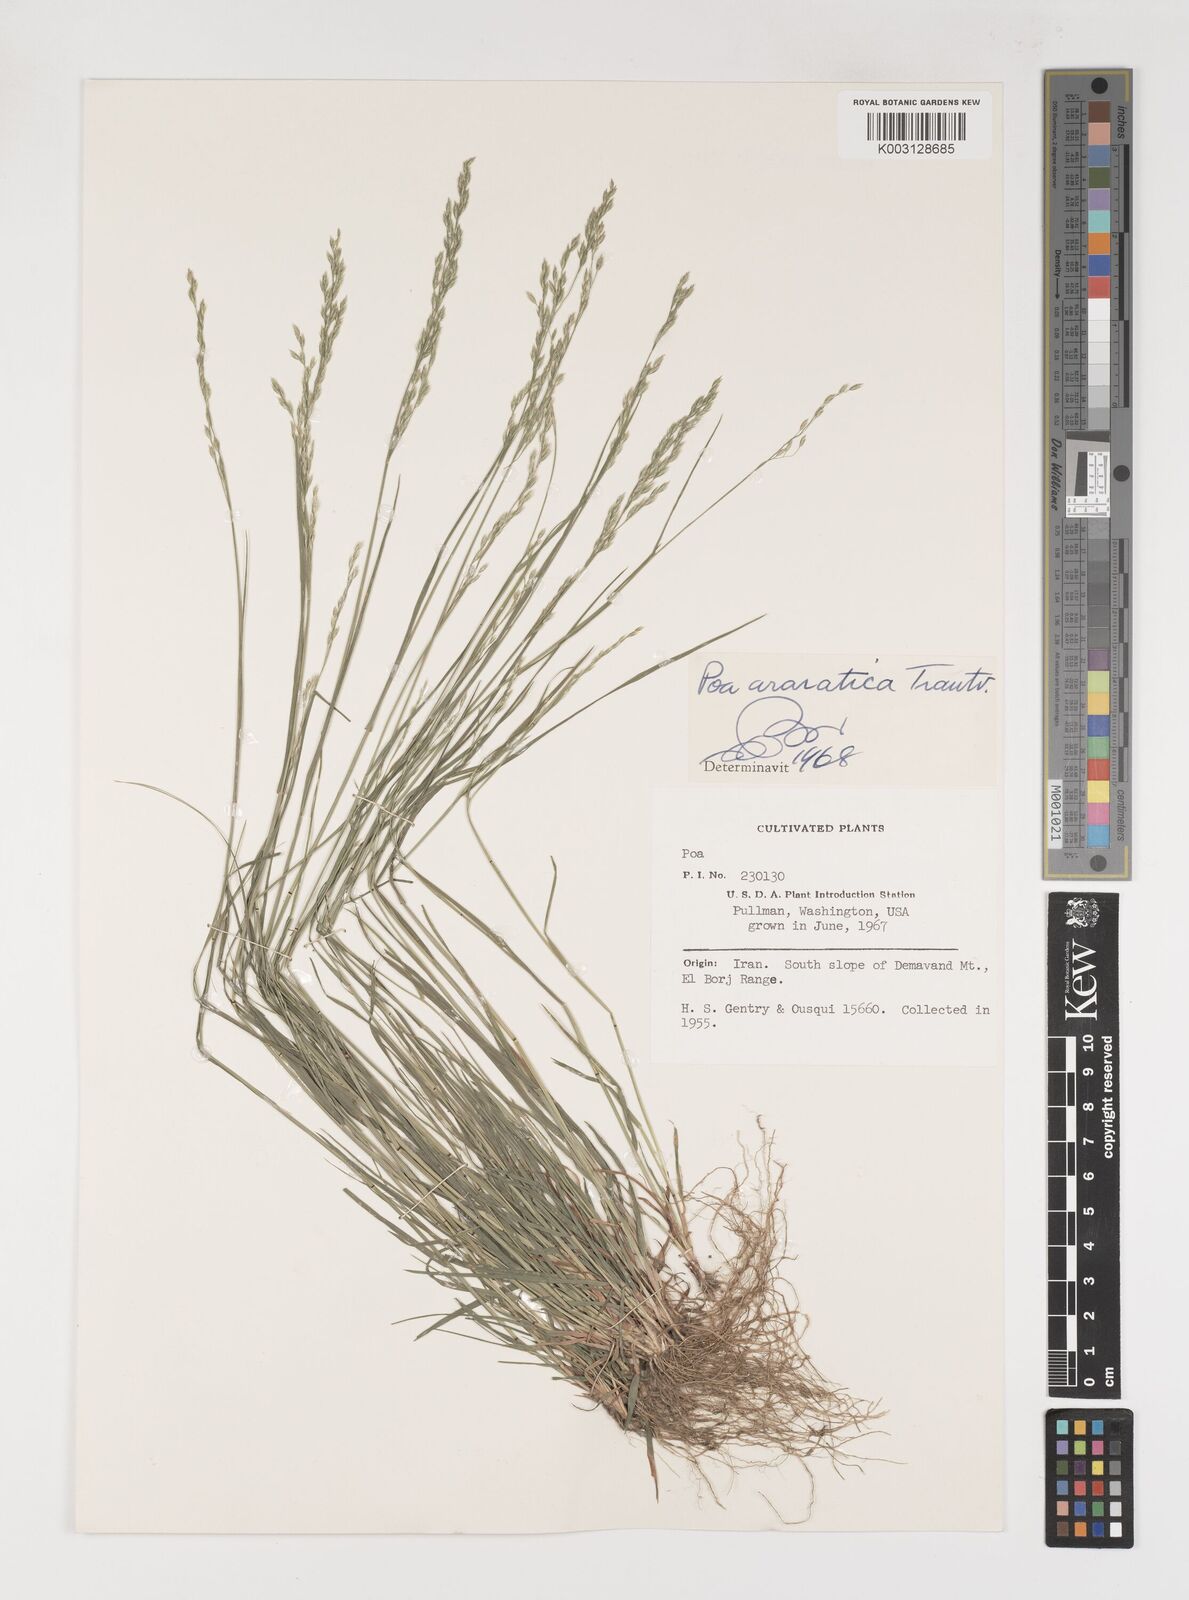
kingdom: Plantae
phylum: Tracheophyta
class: Liliopsida
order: Poales
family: Poaceae
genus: Poa
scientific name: Poa araratica
